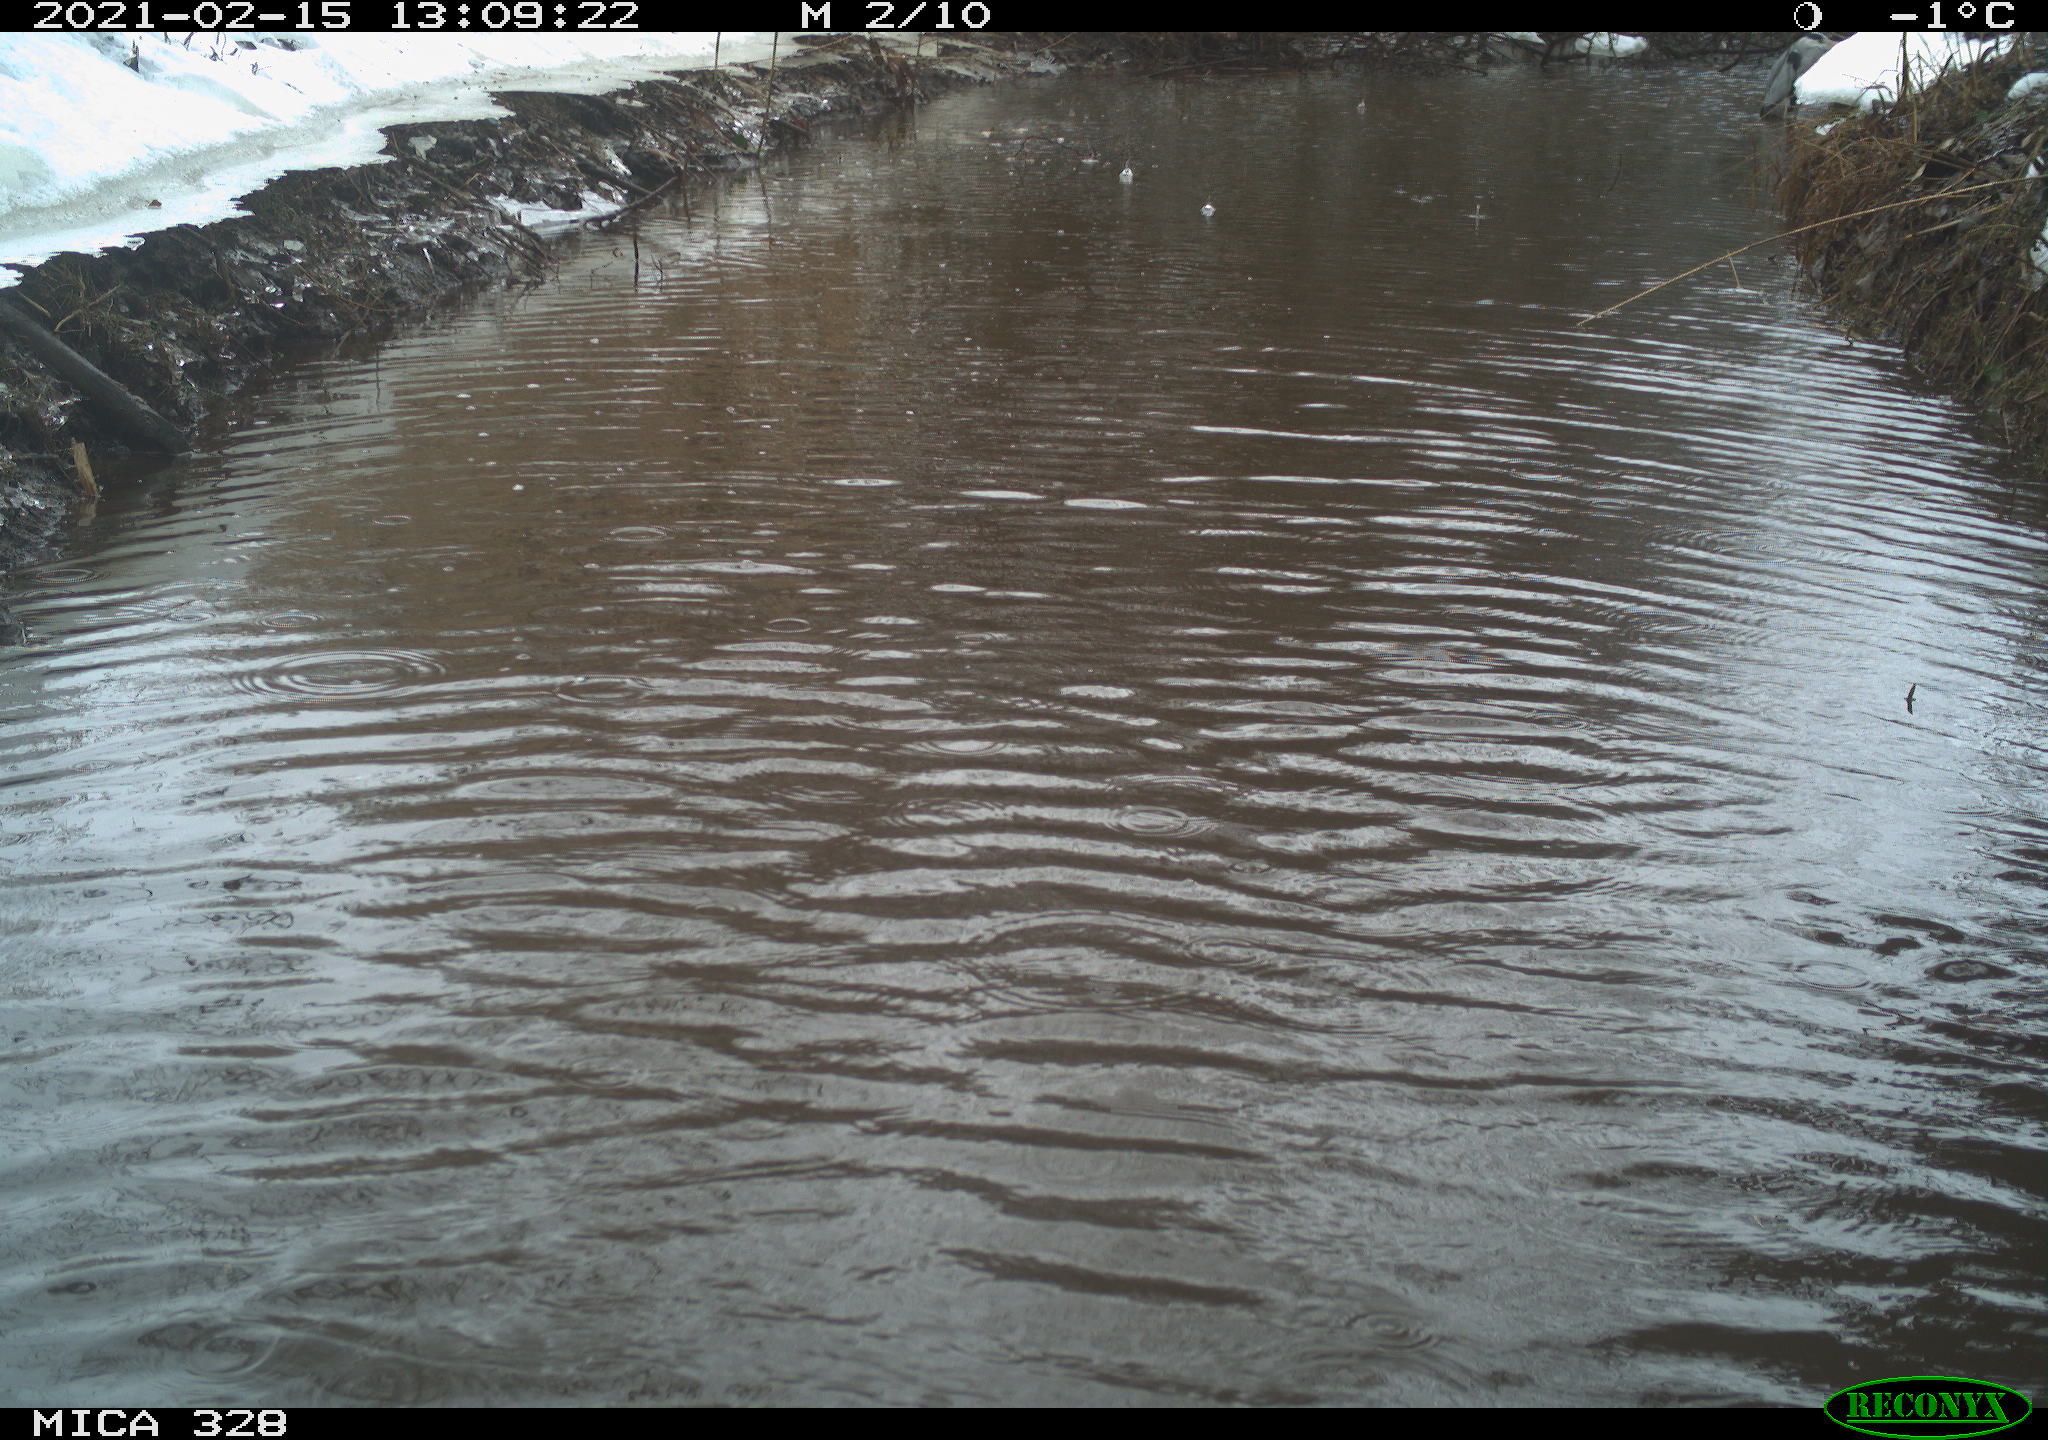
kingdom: Animalia
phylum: Chordata
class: Aves
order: Pelecaniformes
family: Ardeidae
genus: Ardea
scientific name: Ardea cinerea
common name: Grey heron
